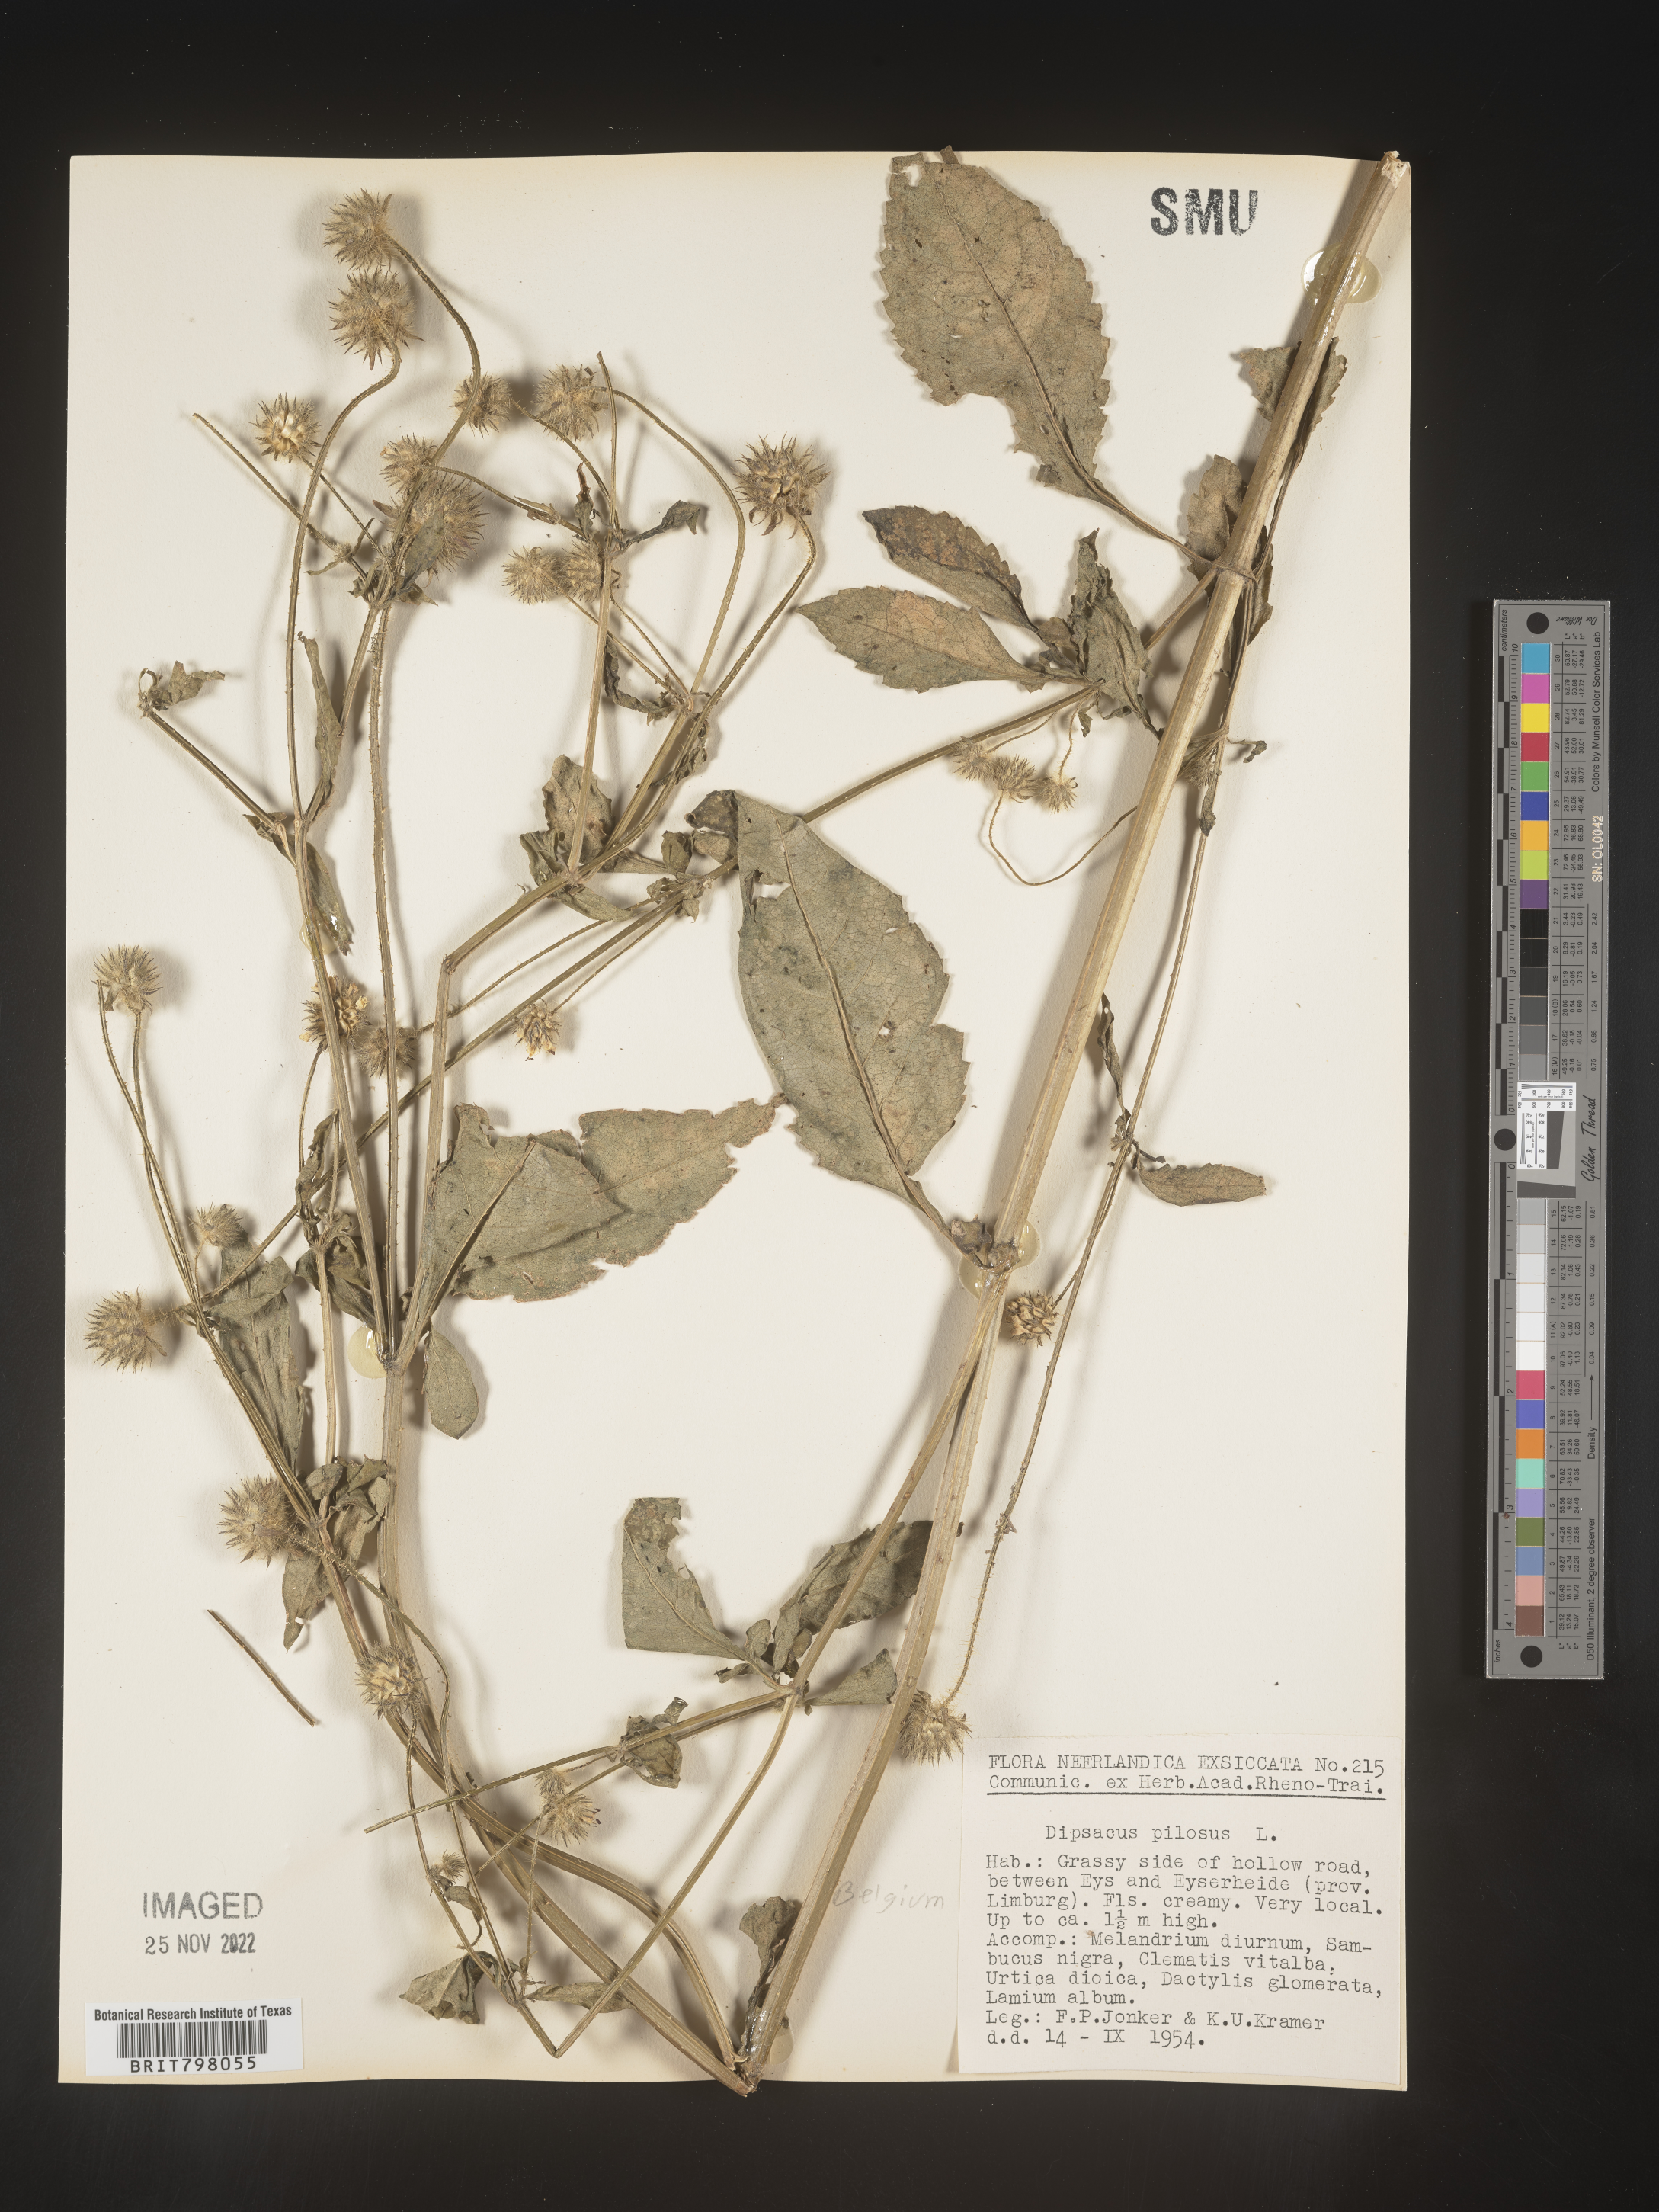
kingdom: Plantae
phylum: Tracheophyta
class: Magnoliopsida
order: Dipsacales
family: Caprifoliaceae
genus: Dipsacus
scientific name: Dipsacus
